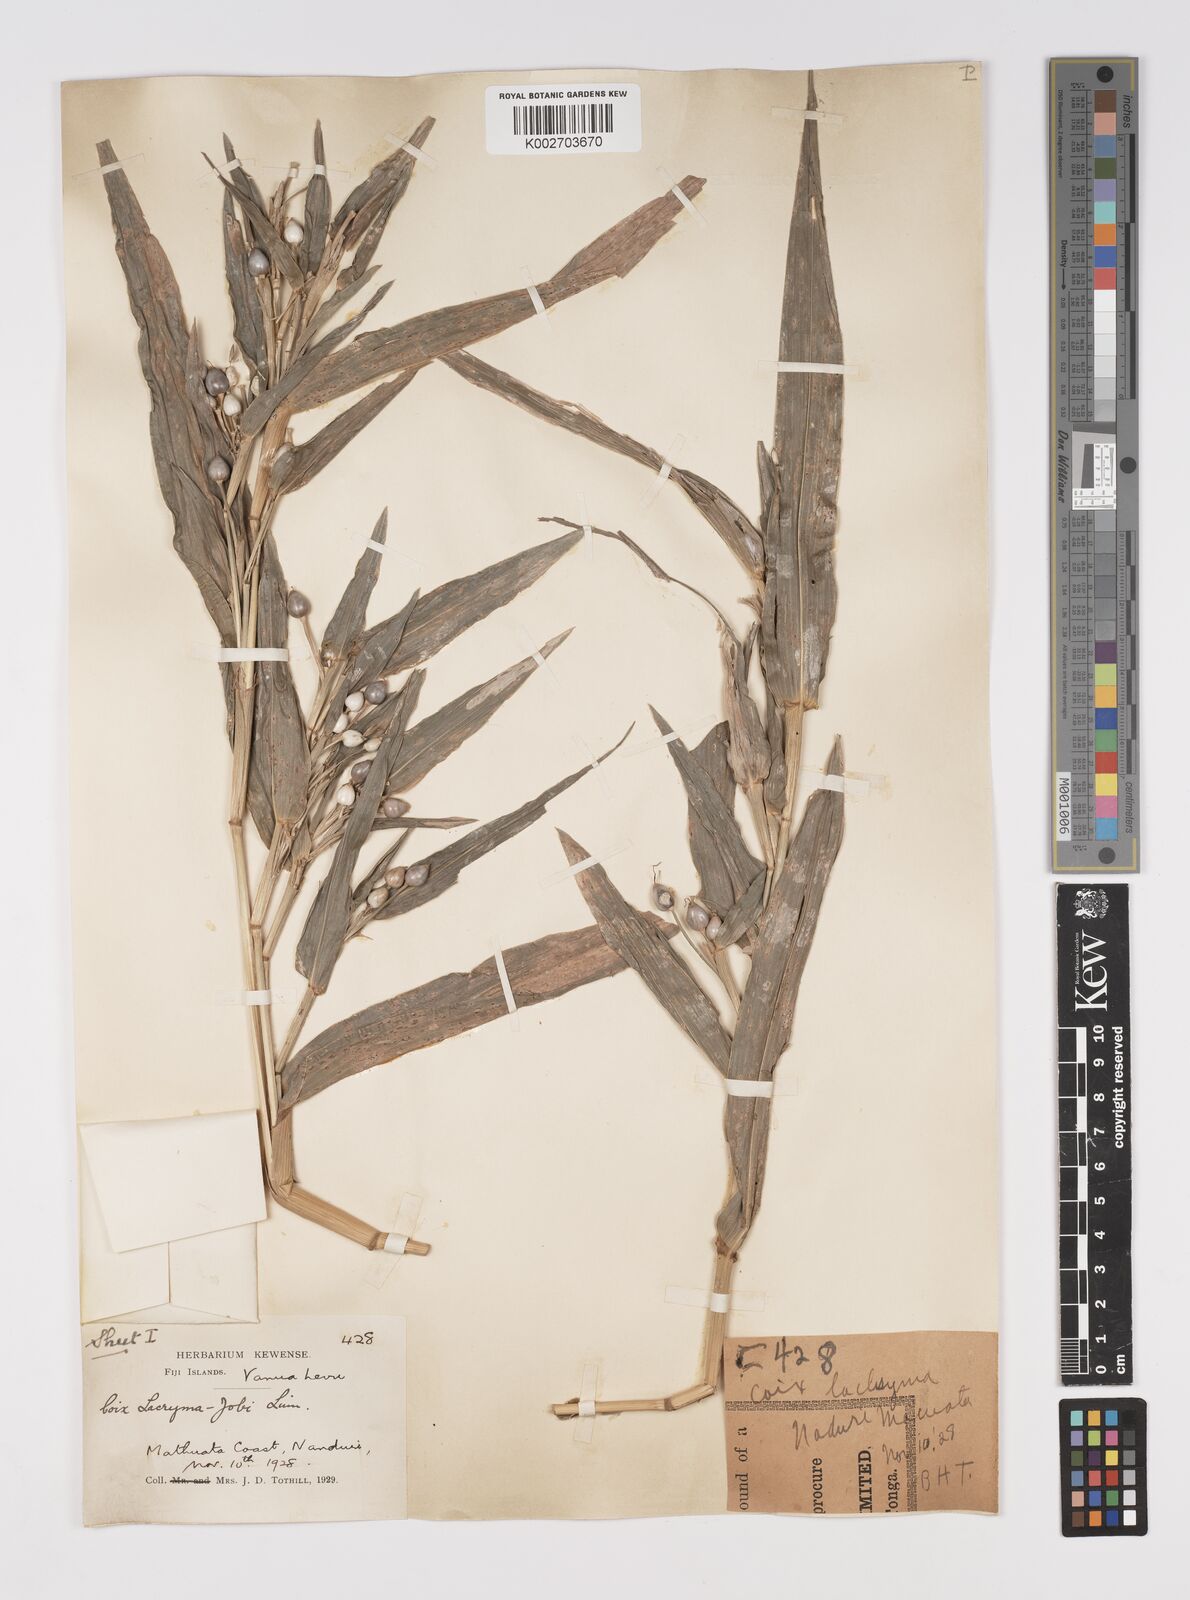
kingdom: Plantae
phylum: Tracheophyta
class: Liliopsida
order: Poales
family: Poaceae
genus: Coix
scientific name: Coix lacryma-jobi
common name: Job's tears
